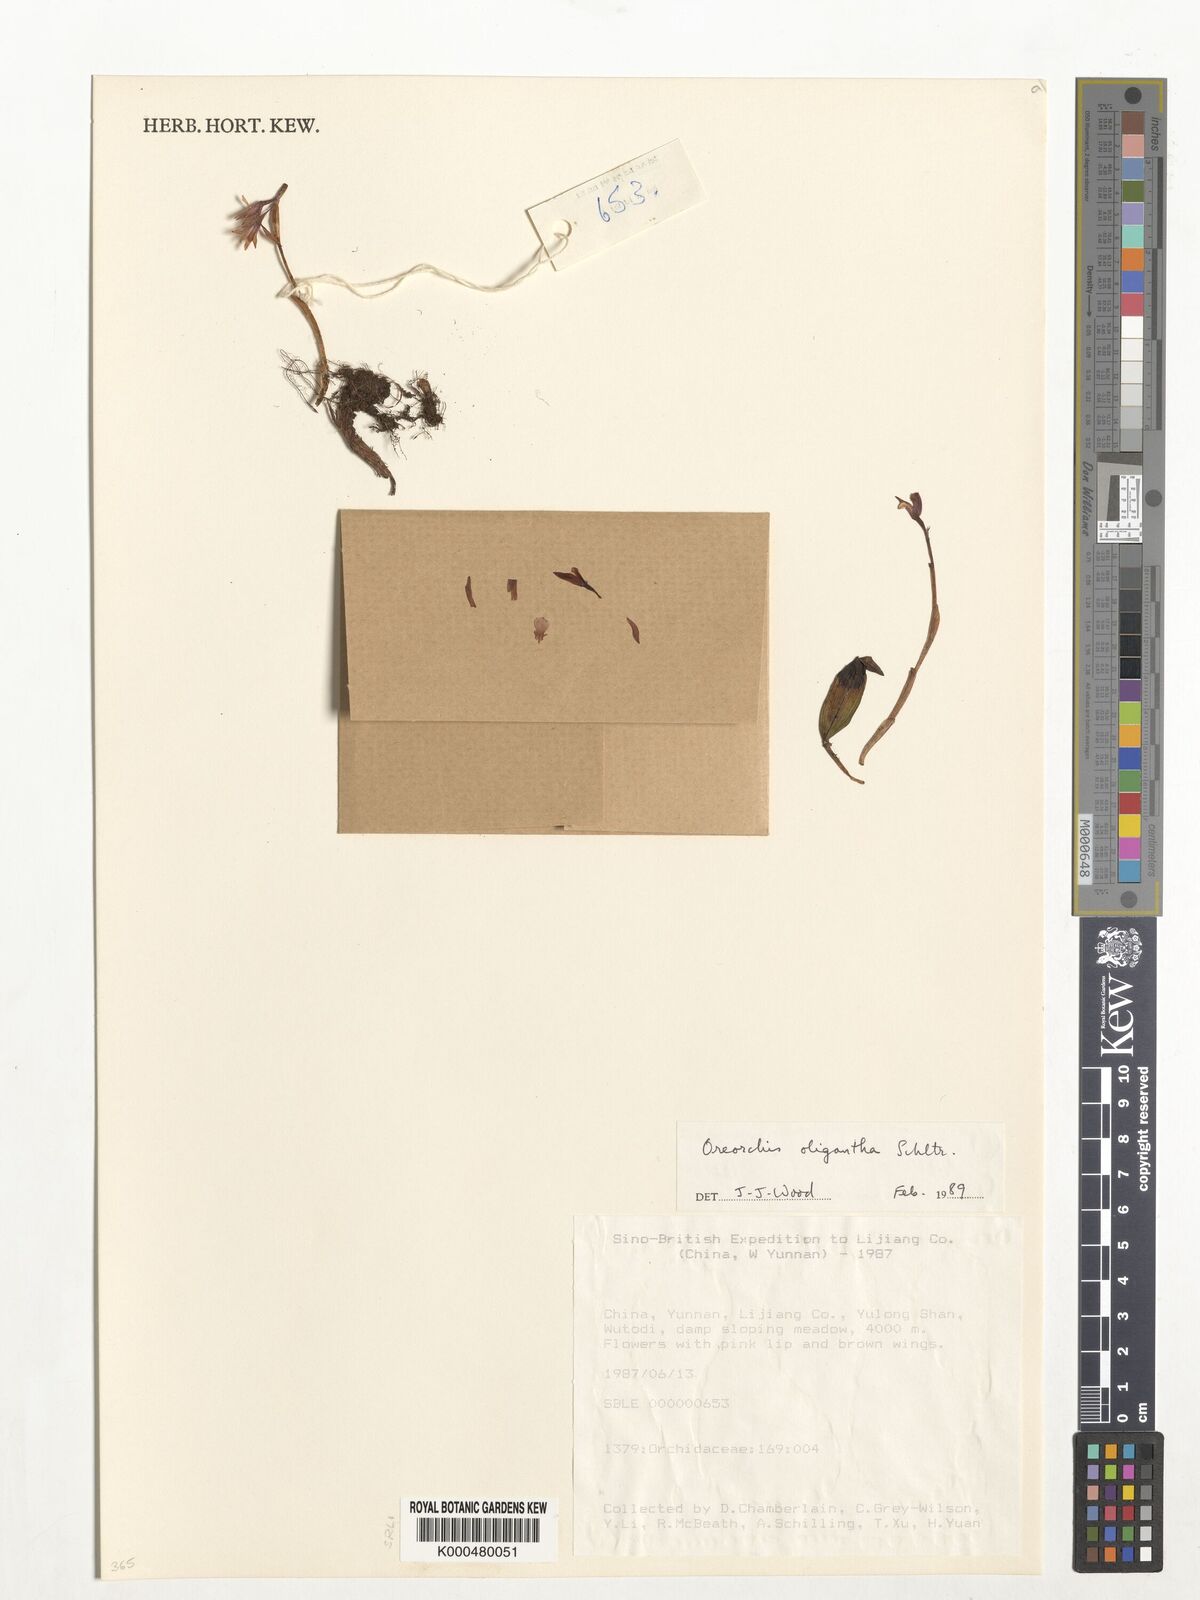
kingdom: Plantae
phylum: Tracheophyta
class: Liliopsida
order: Asparagales
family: Orchidaceae
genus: Oreorchis
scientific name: Oreorchis oligantha
